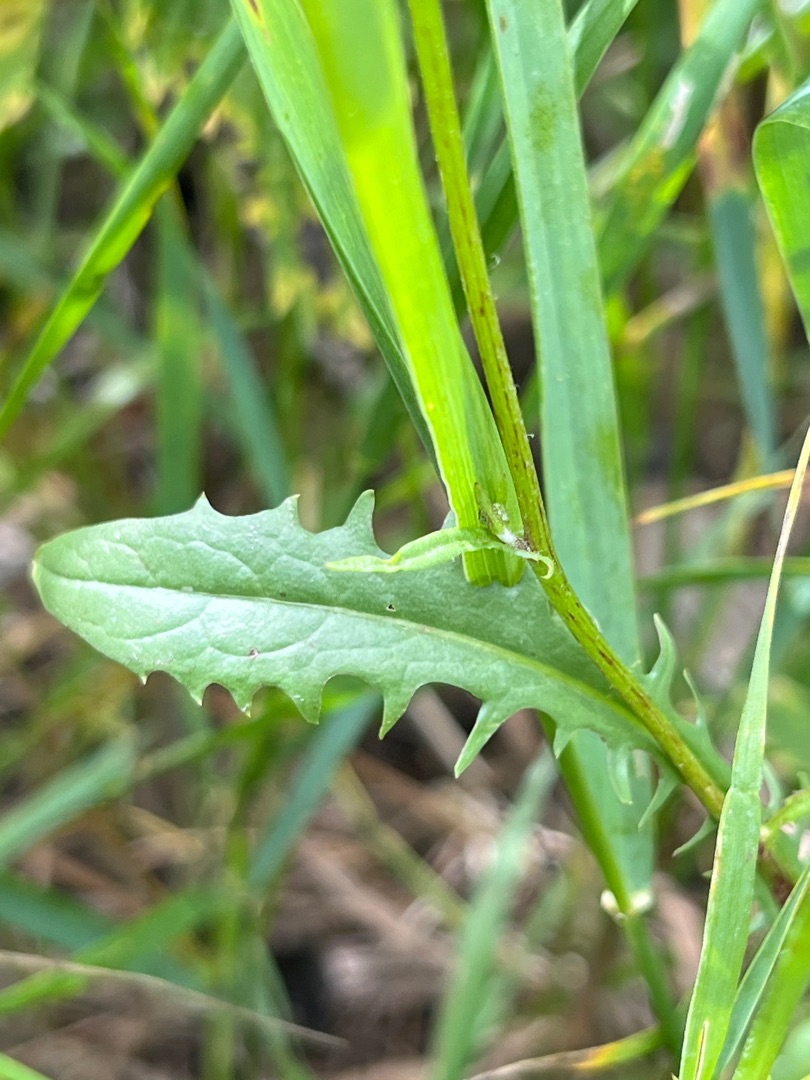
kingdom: Plantae
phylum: Tracheophyta
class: Magnoliopsida
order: Asterales
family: Asteraceae
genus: Crepis
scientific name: Crepis capillaris
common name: Grøn høgeskæg
